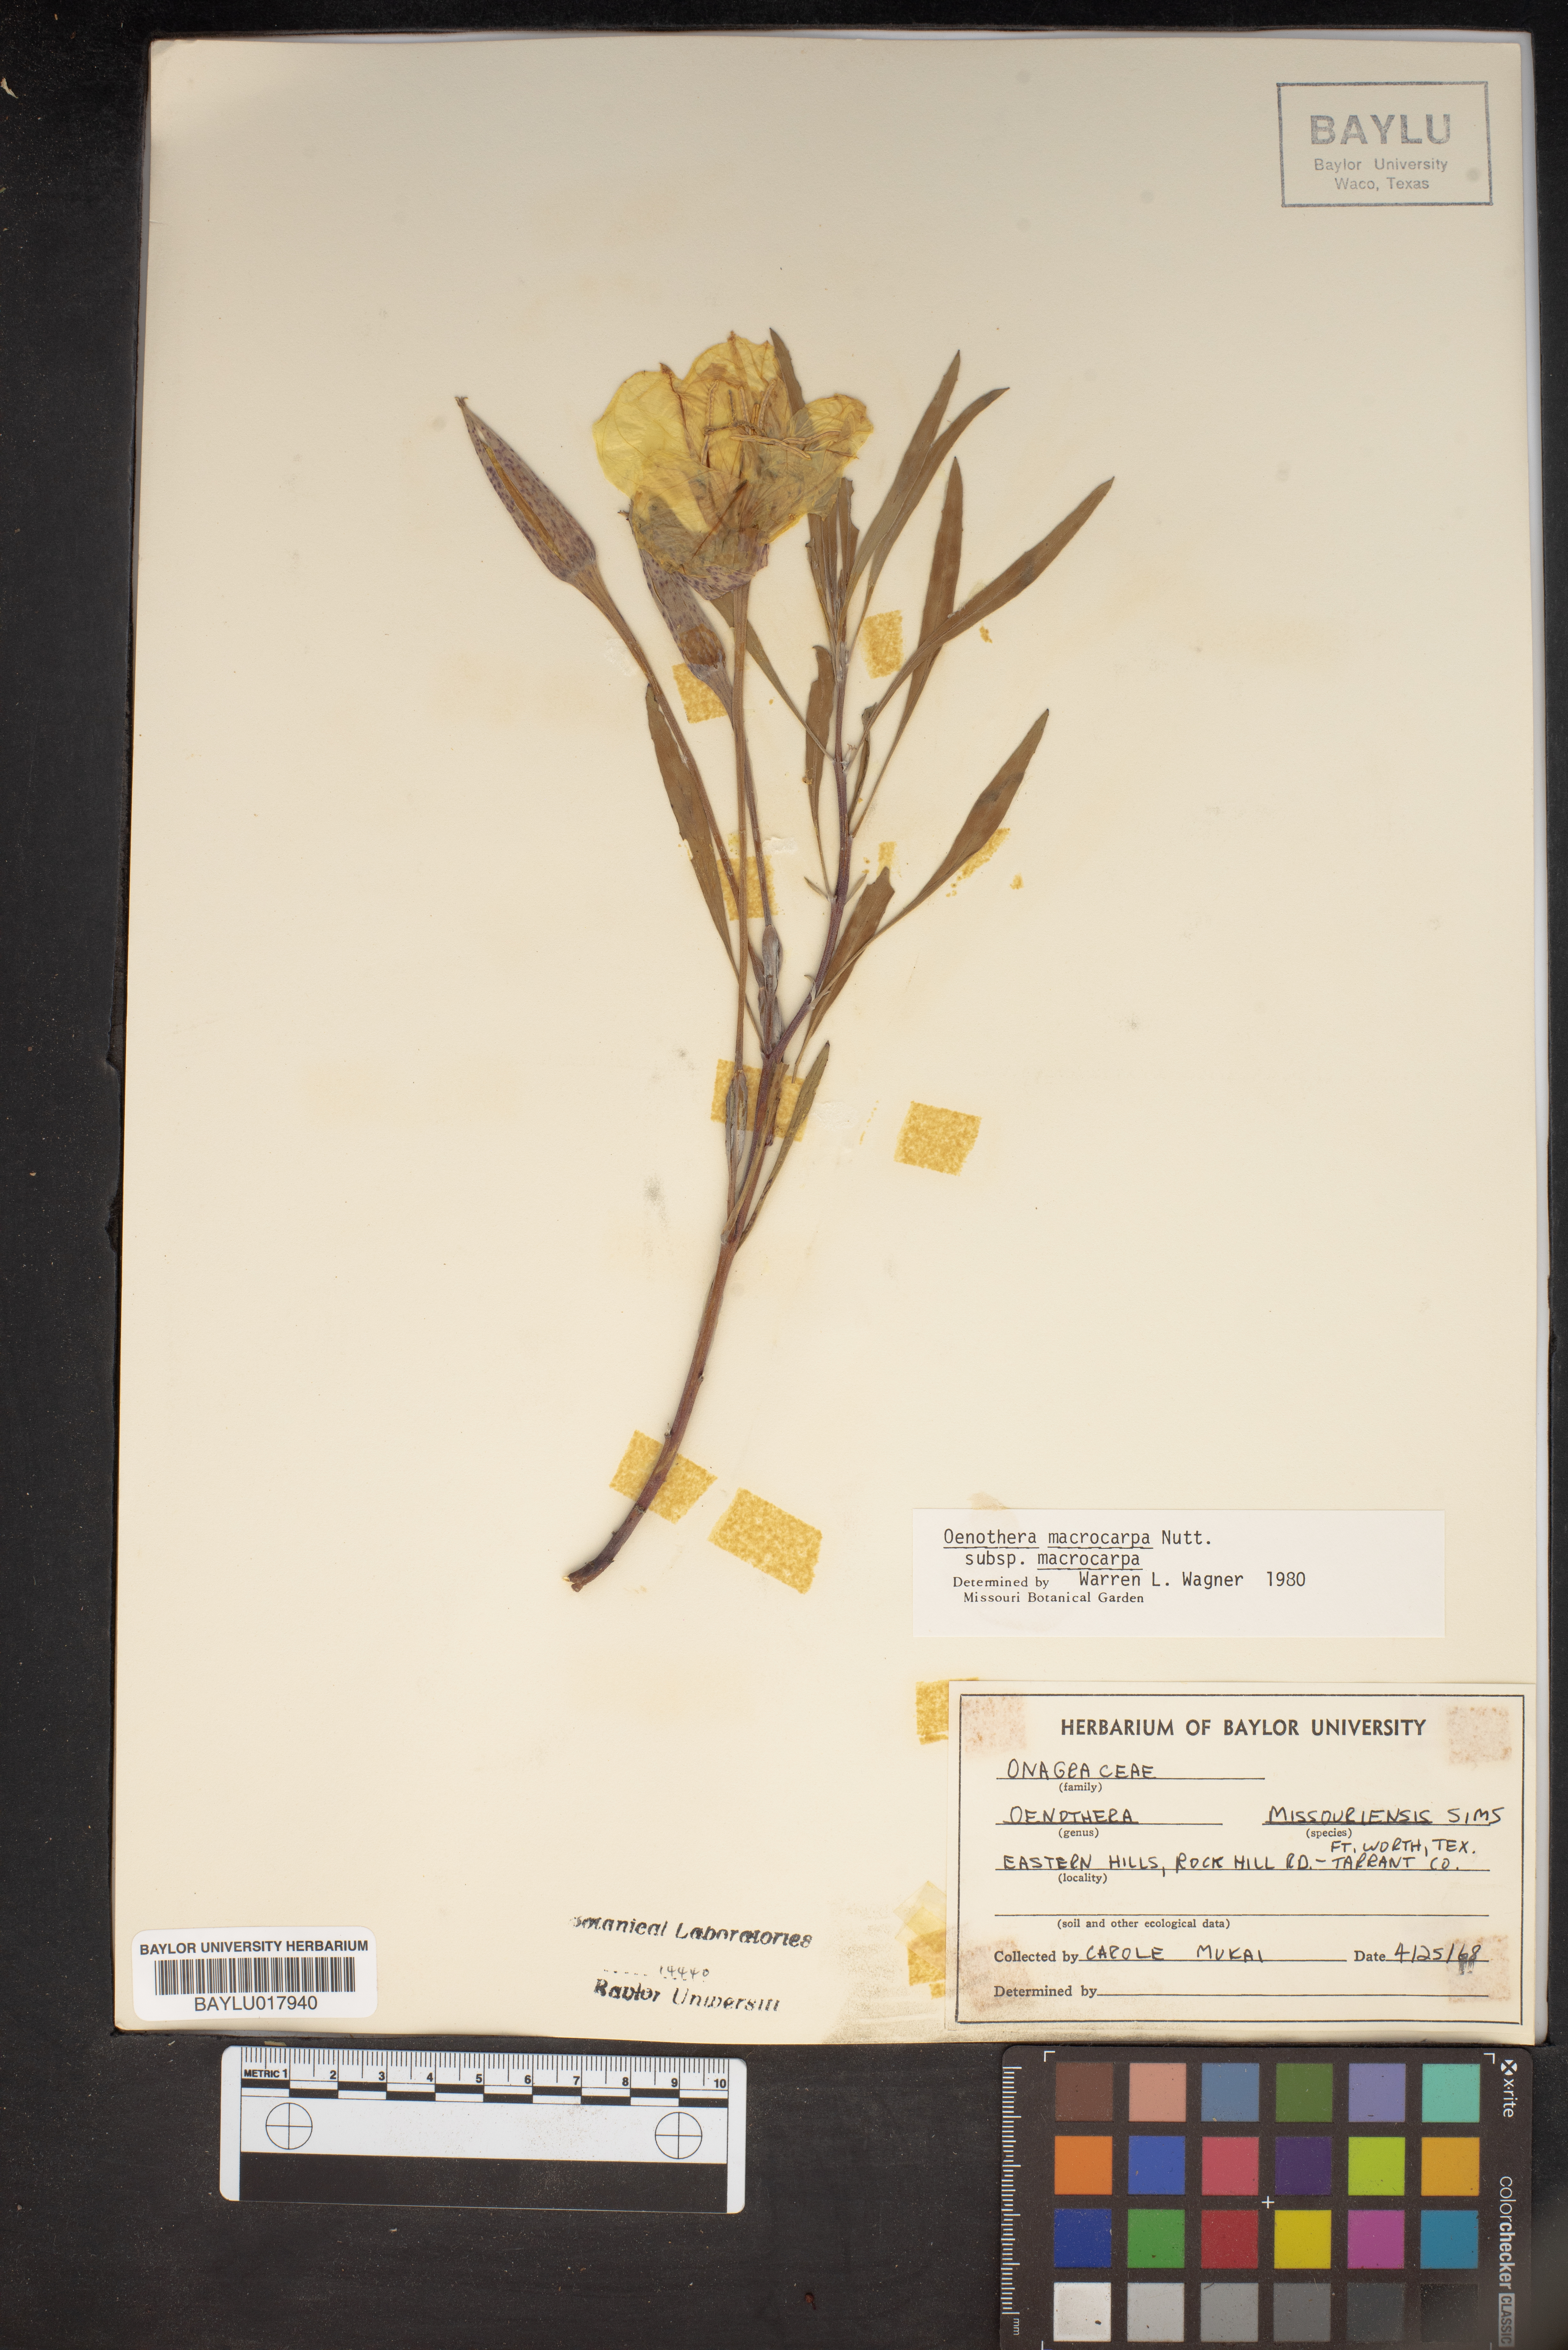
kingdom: Plantae
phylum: Tracheophyta
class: Magnoliopsida
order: Myrtales
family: Onagraceae
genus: Oenothera
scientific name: Oenothera macrocarpa
